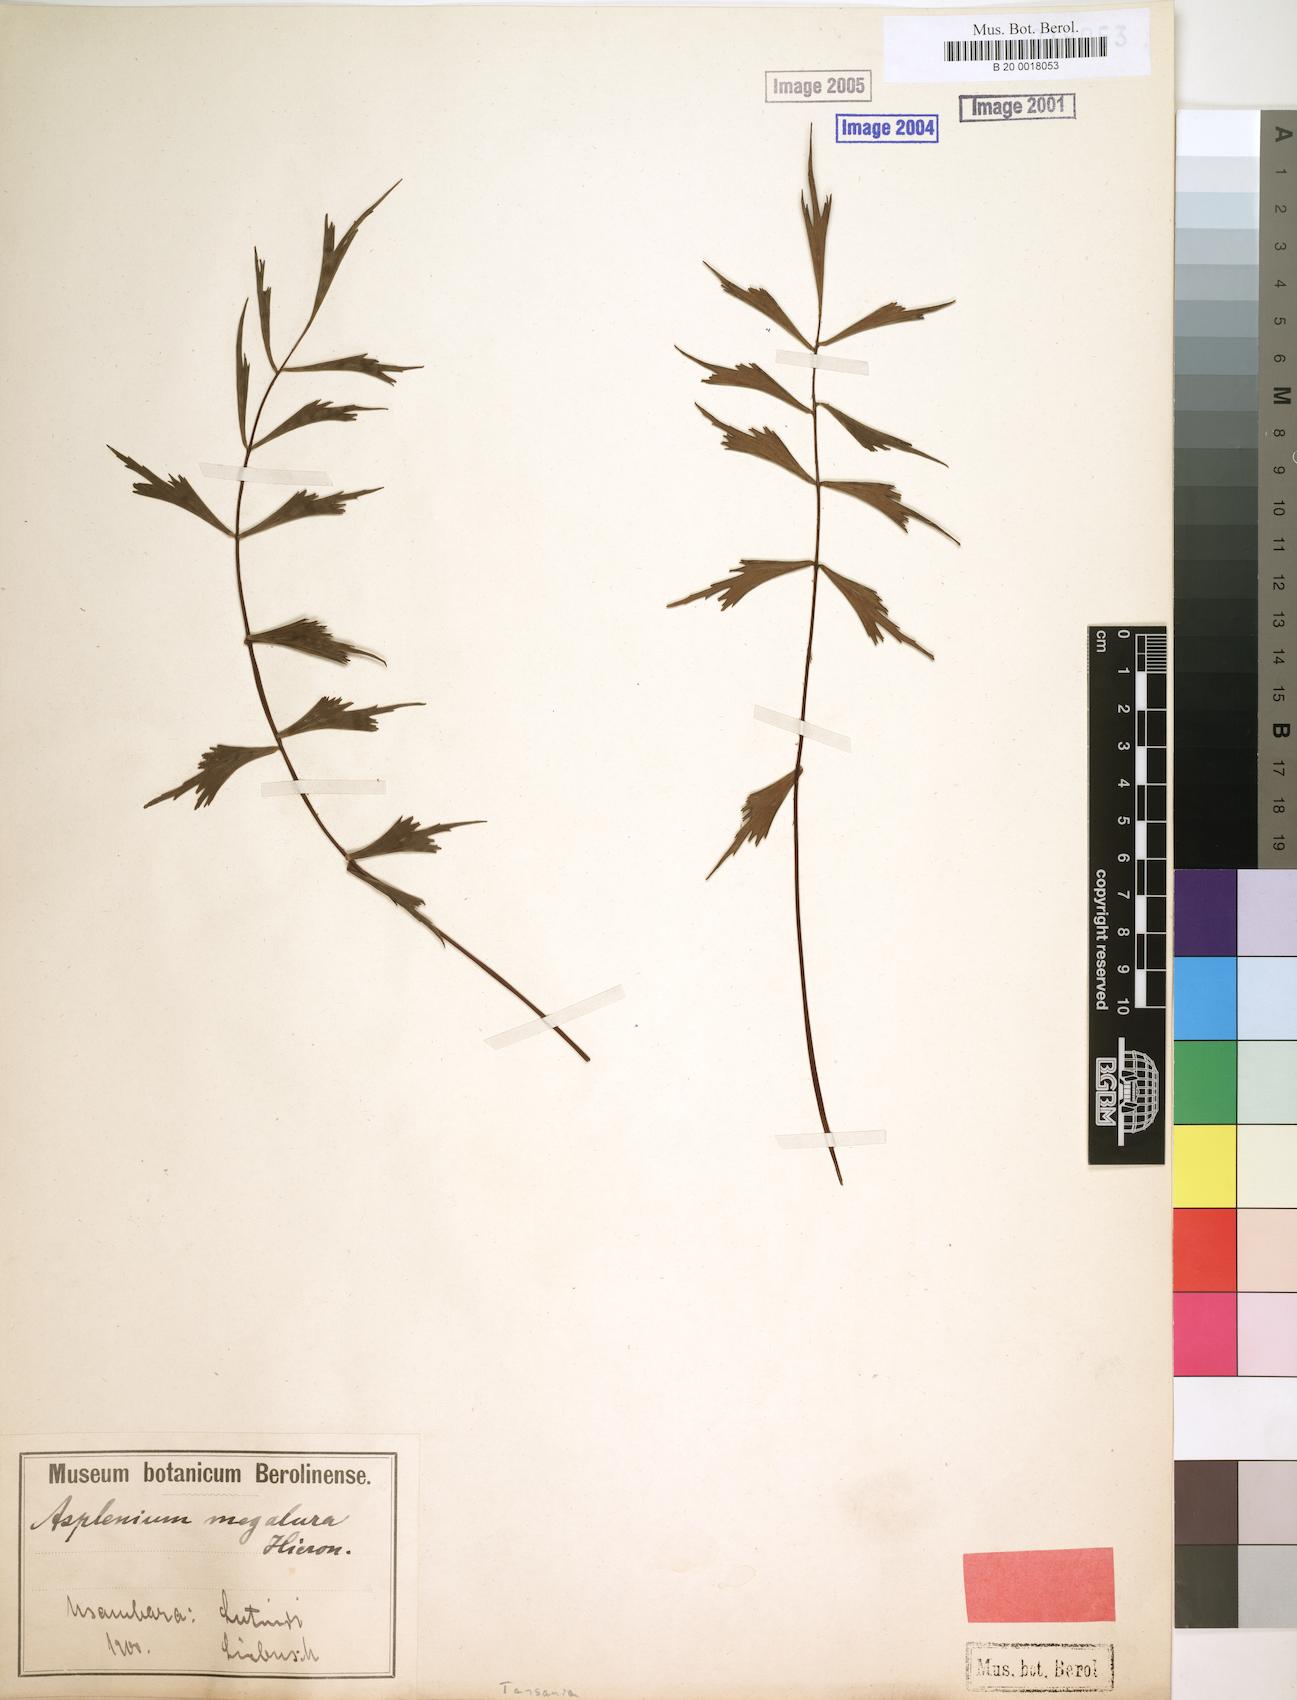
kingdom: Plantae
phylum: Tracheophyta
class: Polypodiopsida
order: Polypodiales
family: Aspleniaceae
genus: Asplenium
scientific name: Asplenium megalura
